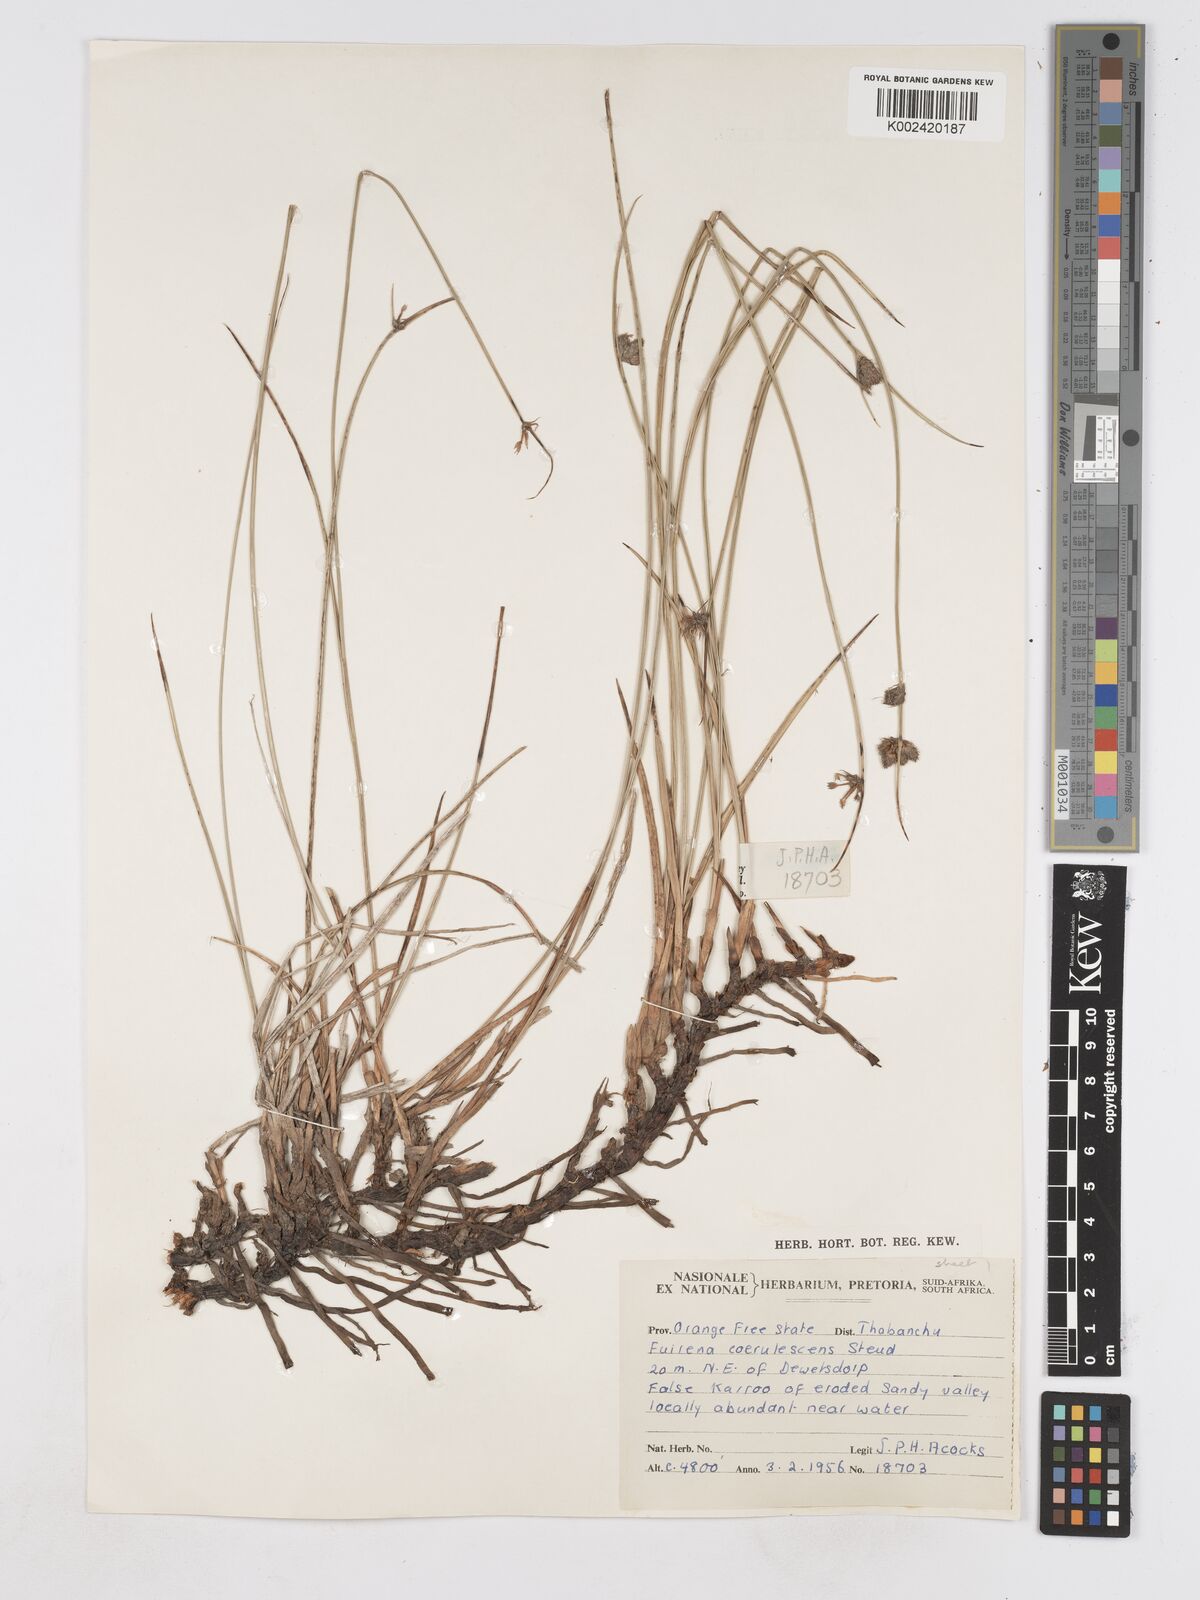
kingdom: Plantae
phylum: Tracheophyta
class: Liliopsida
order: Poales
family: Cyperaceae
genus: Fuirena
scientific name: Fuirena coerulescens
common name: Blue umbrella-sedge
